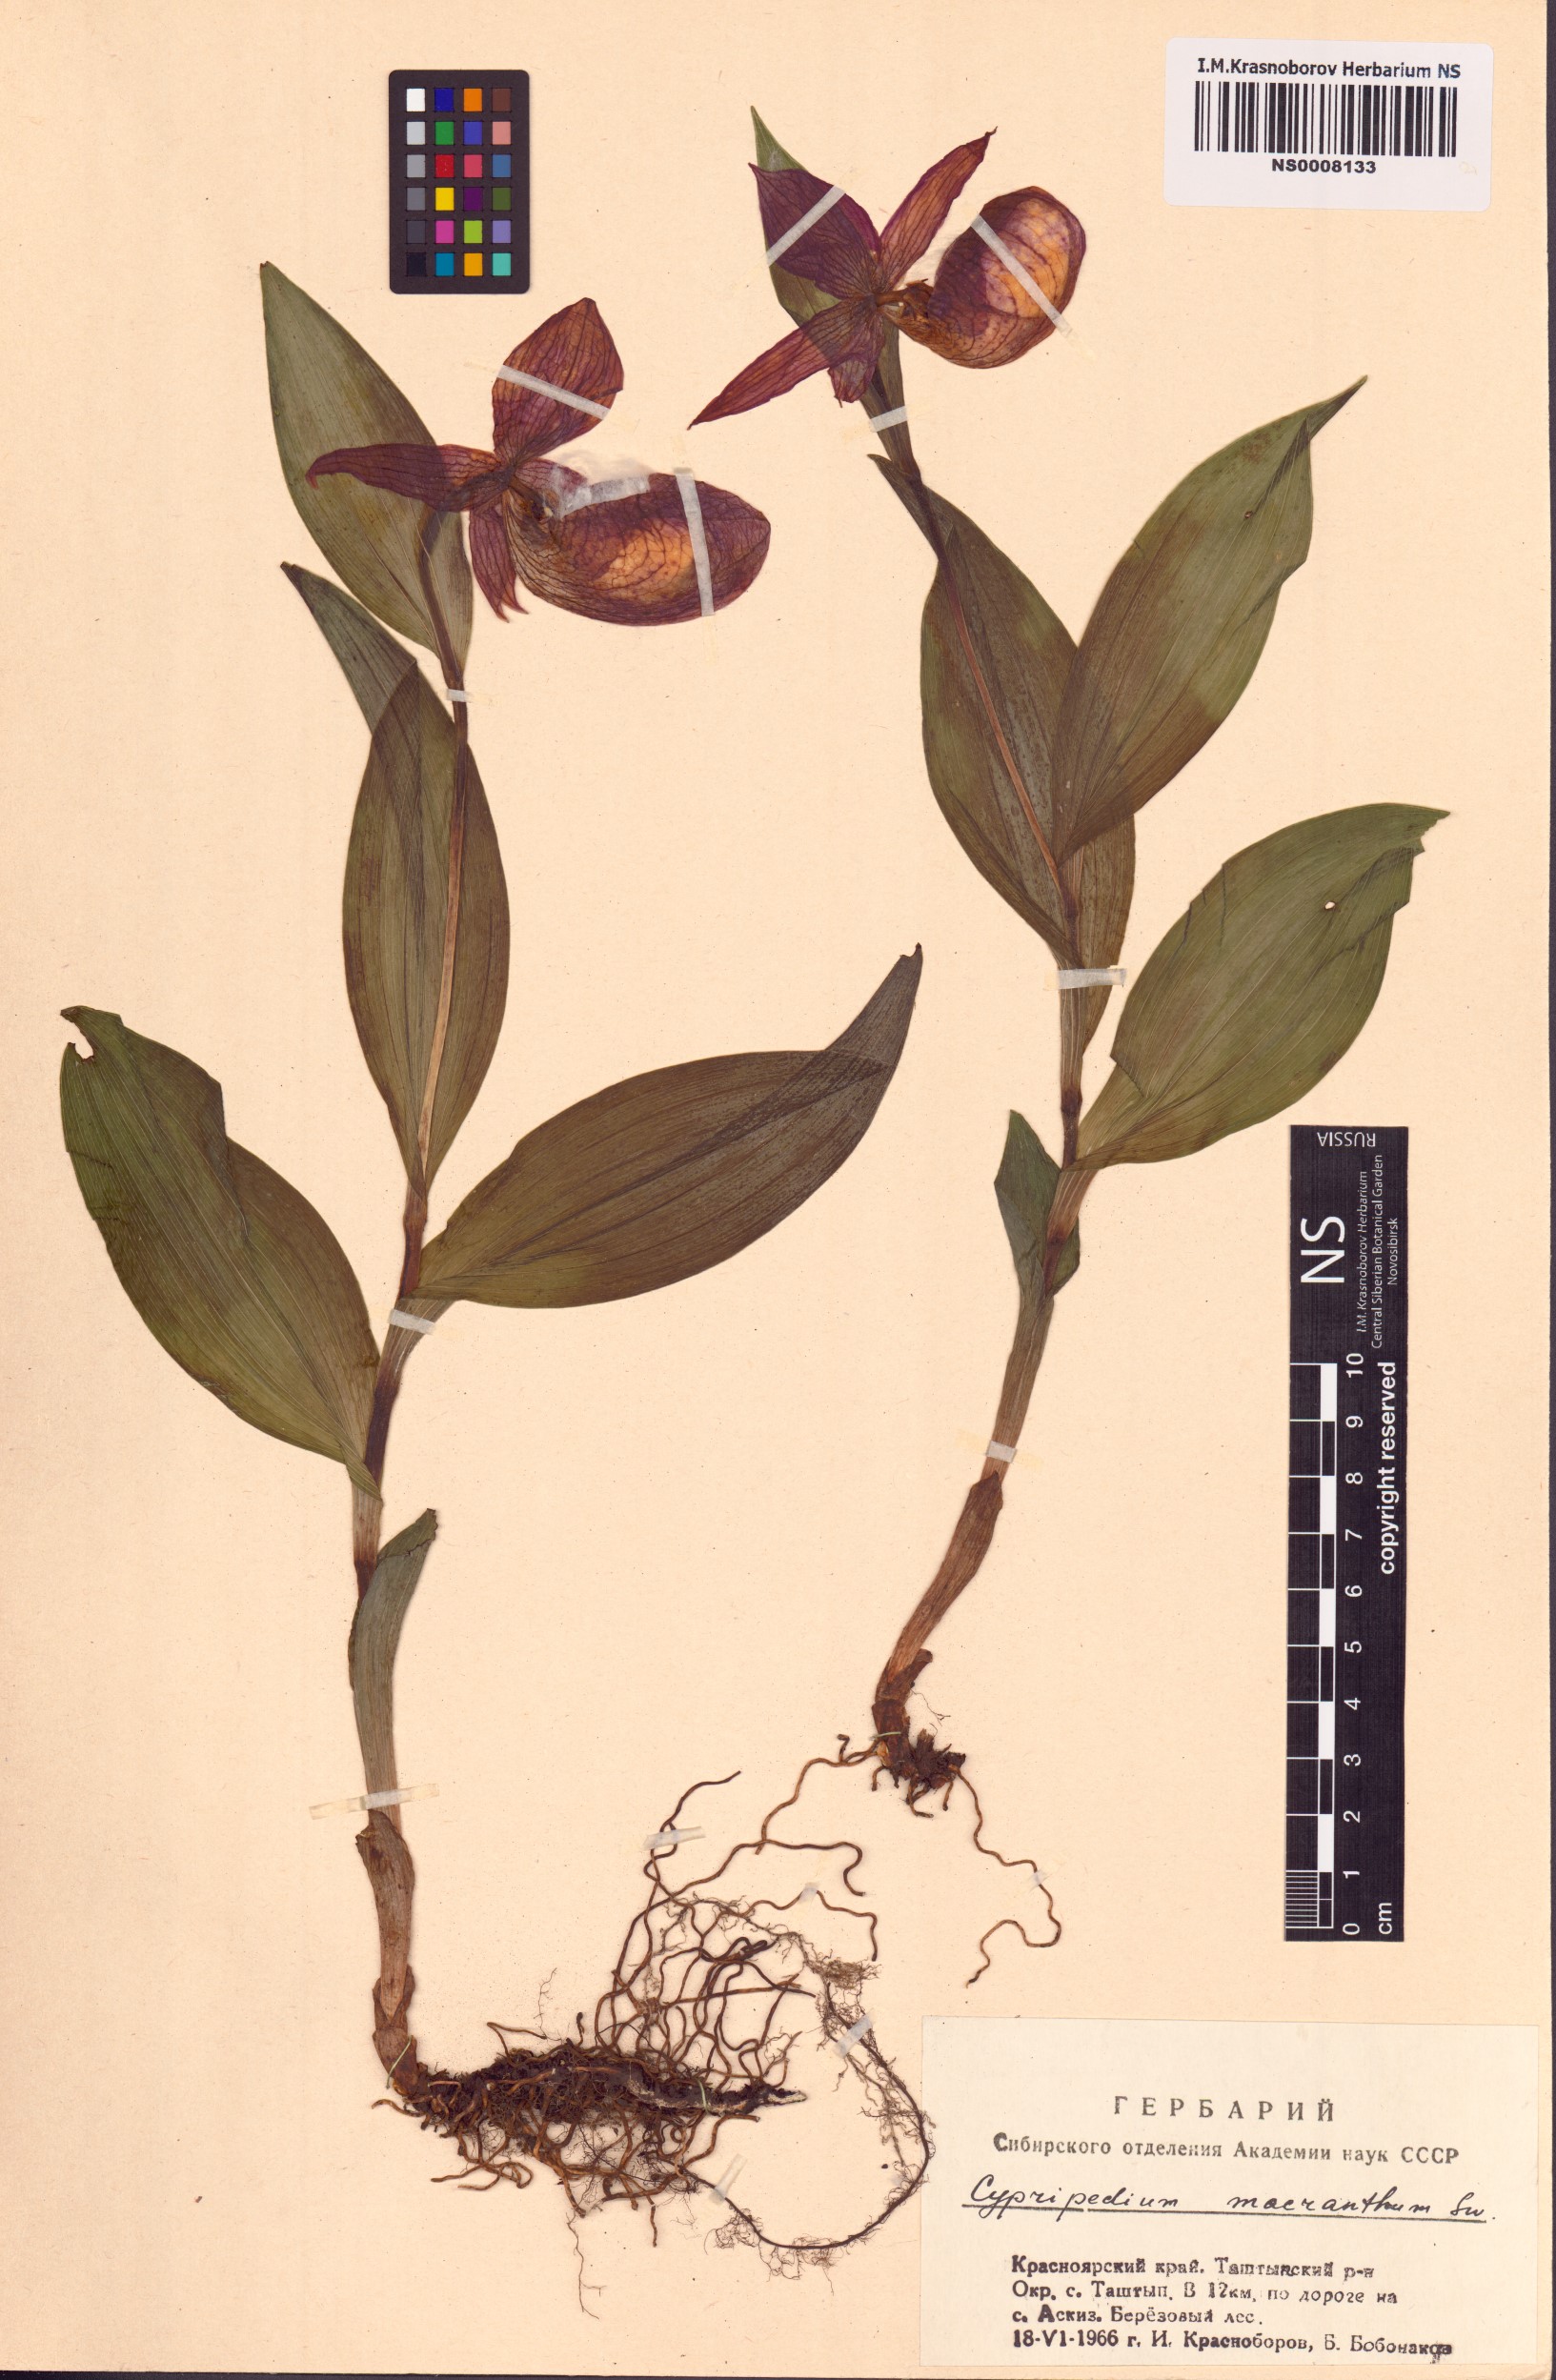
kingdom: Plantae
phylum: Tracheophyta
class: Liliopsida
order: Asparagales
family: Orchidaceae
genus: Cypripedium
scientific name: Cypripedium macranthos
